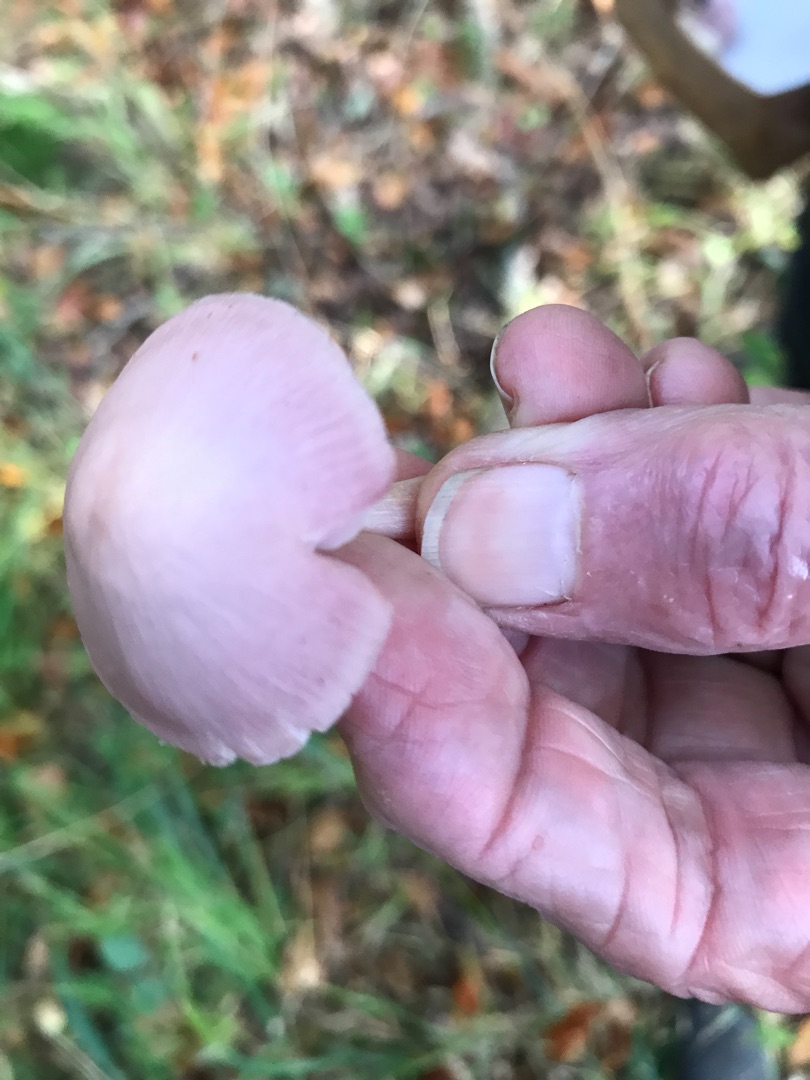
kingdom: Fungi
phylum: Basidiomycota
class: Agaricomycetes
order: Agaricales
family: Mycenaceae
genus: Mycena
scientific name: Mycena rosea
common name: Rosa huesvamp
